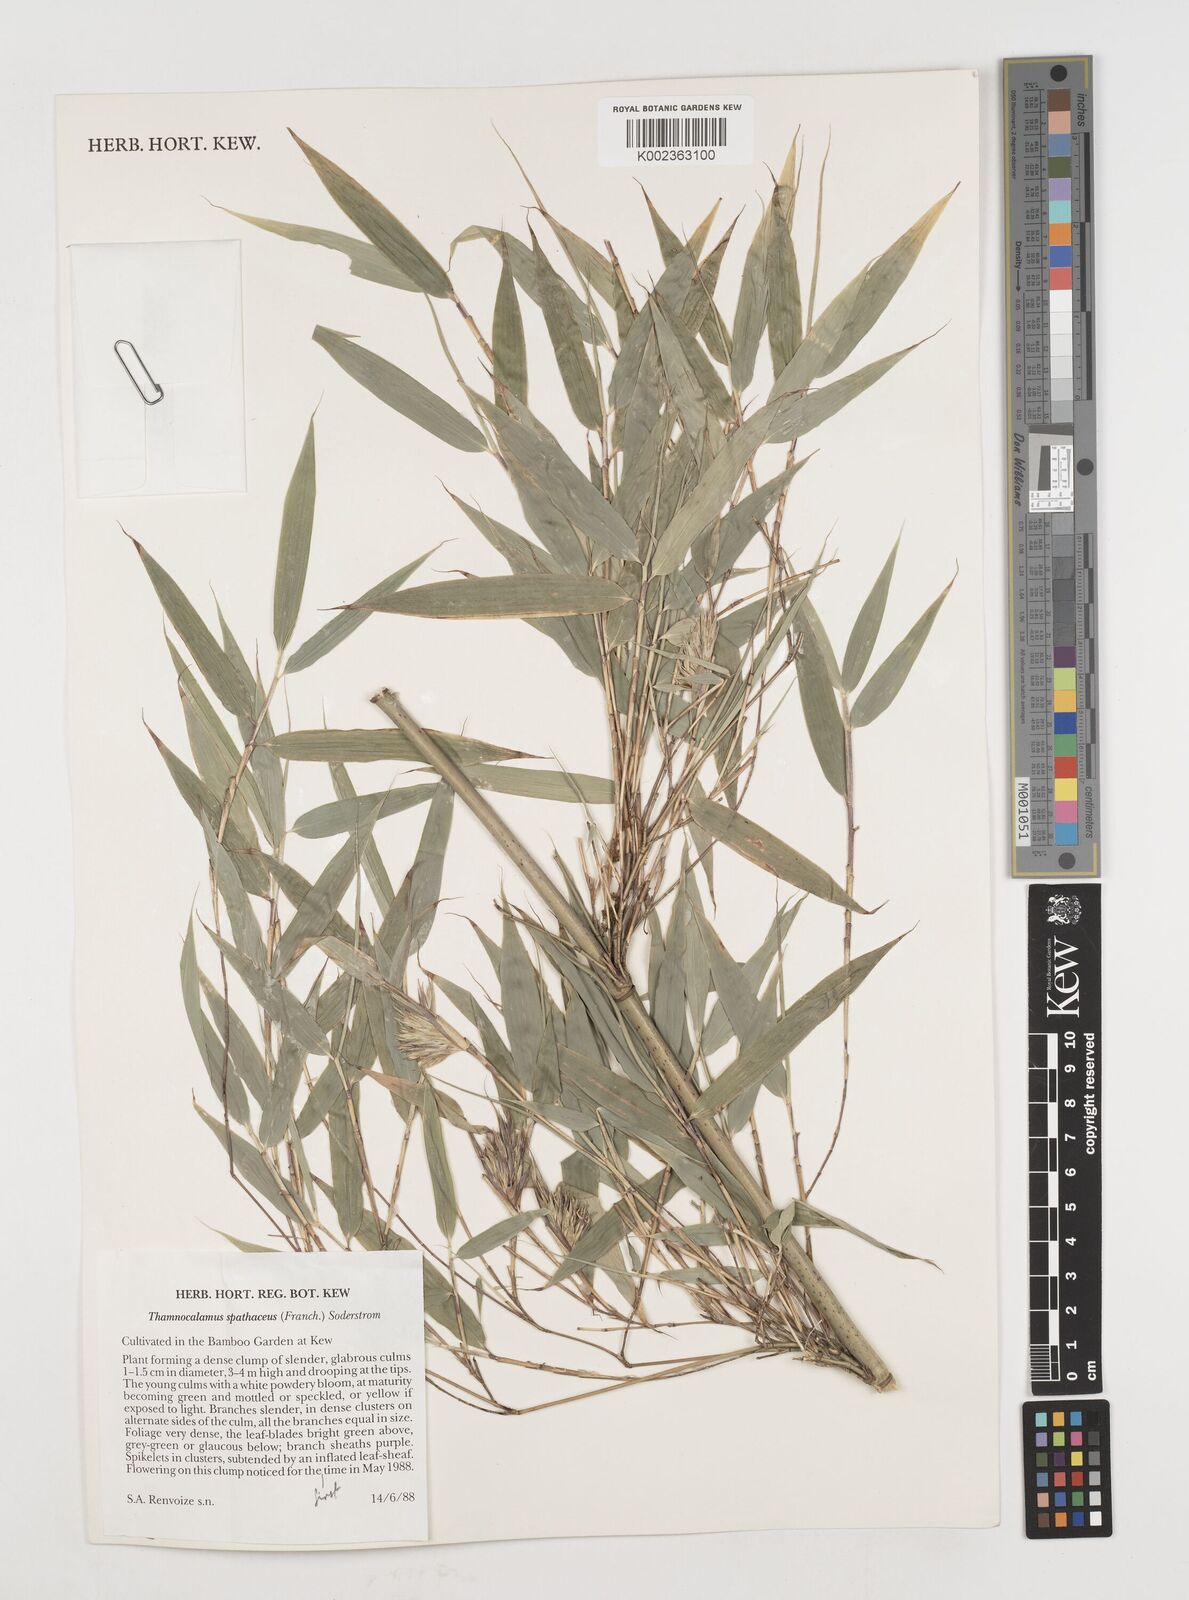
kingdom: Plantae
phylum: Tracheophyta
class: Liliopsida
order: Poales
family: Poaceae
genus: Fargesia
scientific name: Fargesia murielae
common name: Umbrella bamboo
